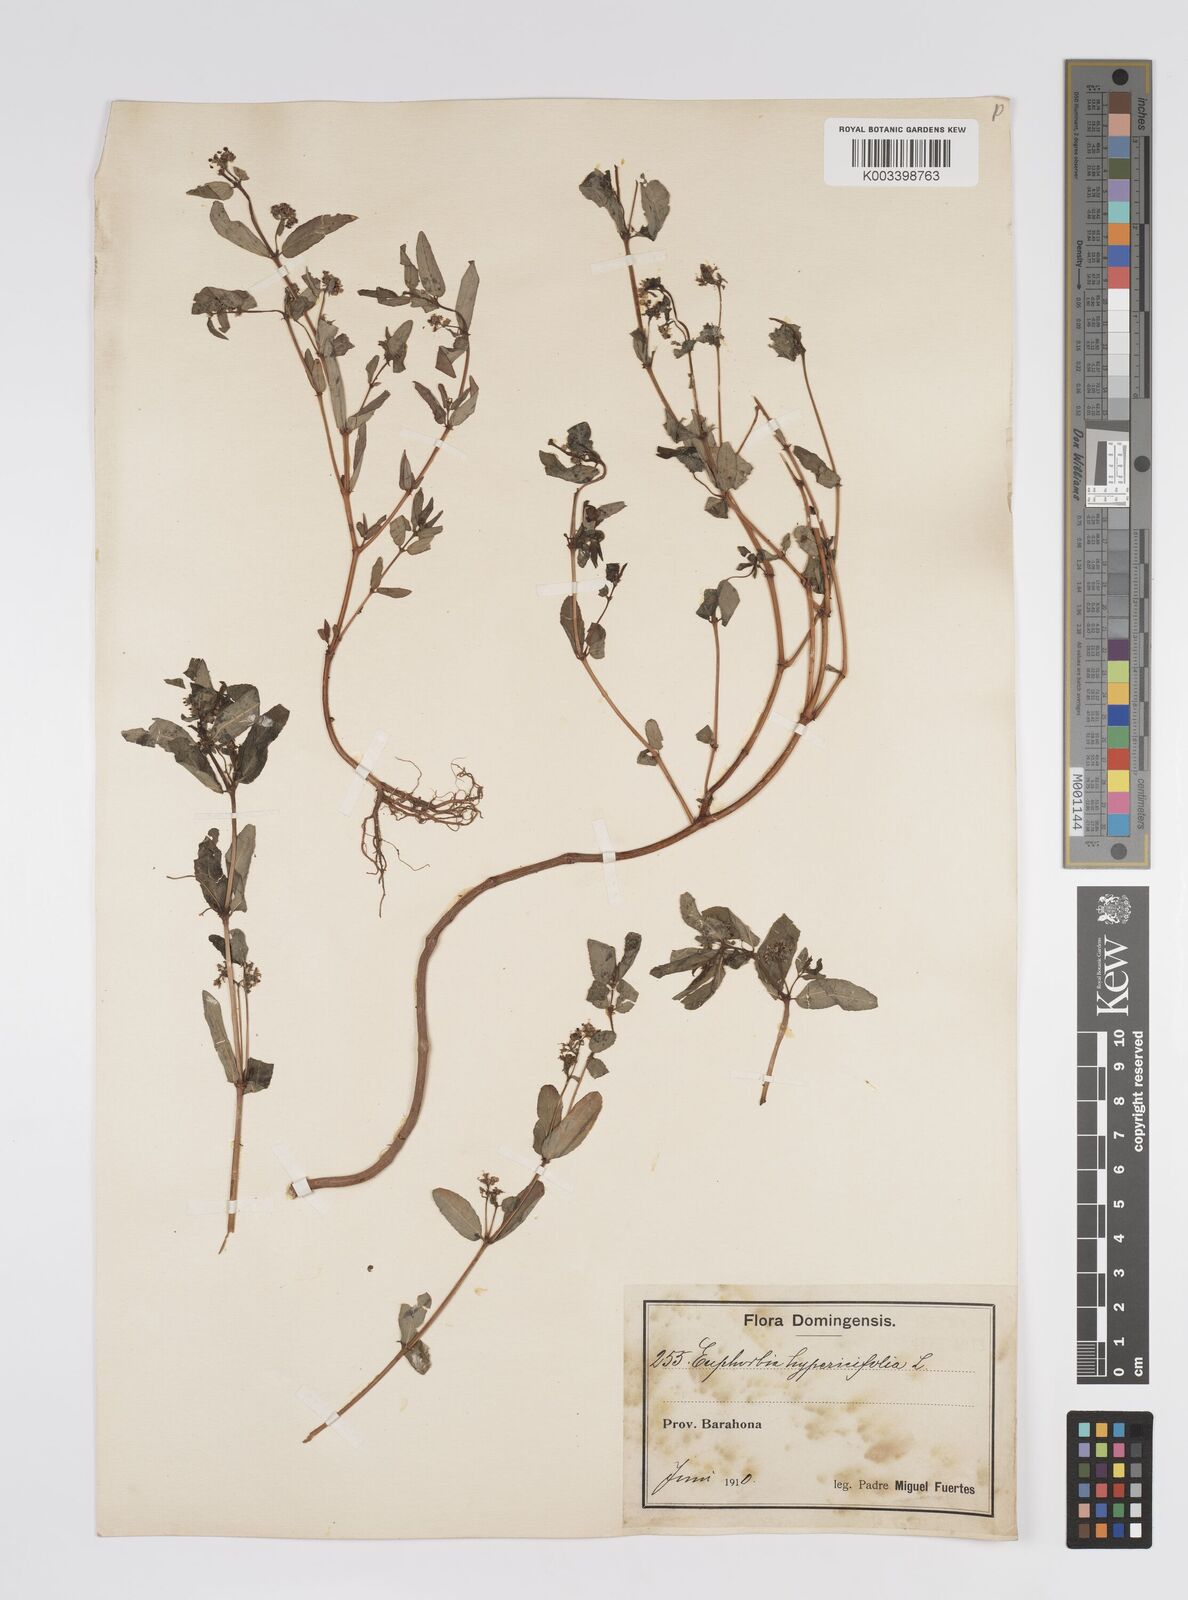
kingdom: Plantae
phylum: Tracheophyta
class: Magnoliopsida
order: Malpighiales
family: Euphorbiaceae
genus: Euphorbia
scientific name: Euphorbia
